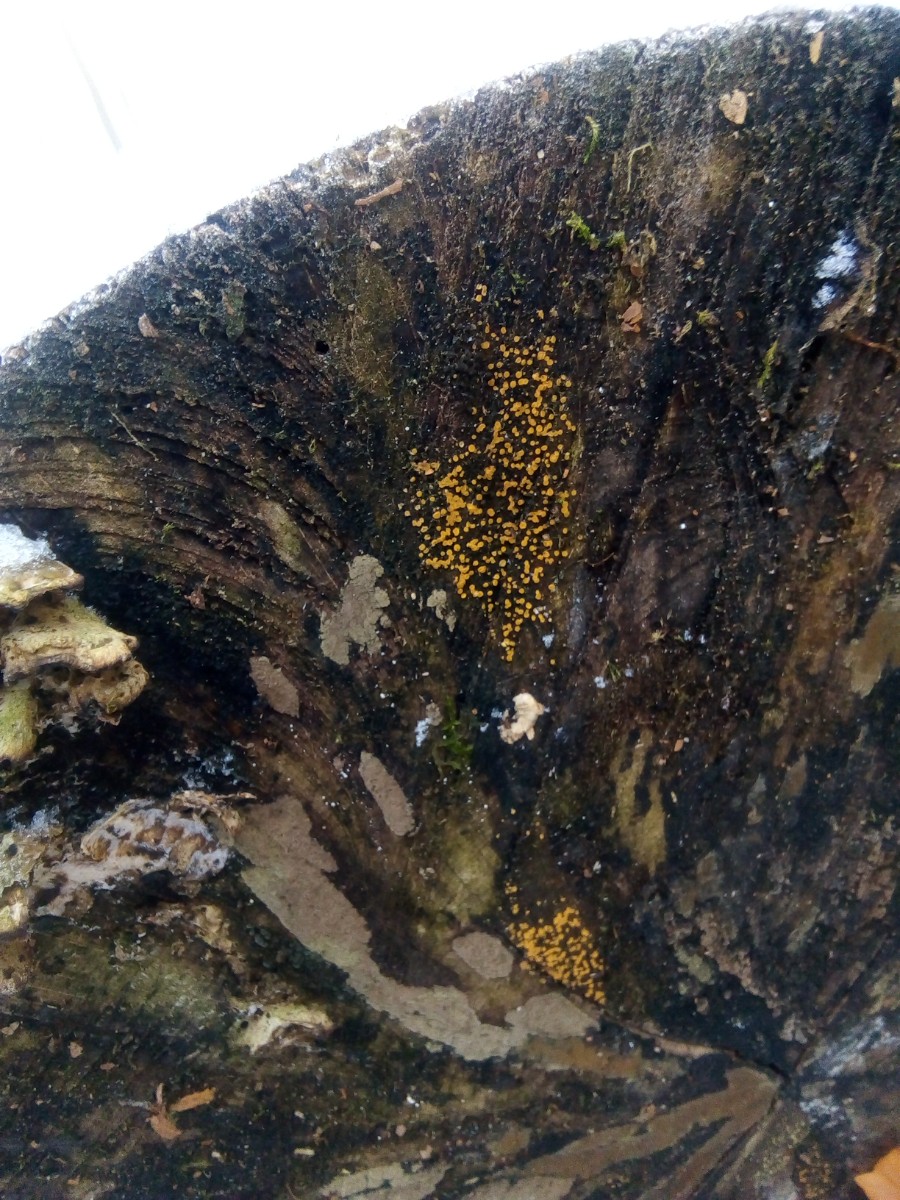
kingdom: Fungi
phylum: Ascomycota
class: Leotiomycetes
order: Helotiales
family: Helotiaceae
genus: Bispora
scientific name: Bispora pallescens
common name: måtte-snitskive
